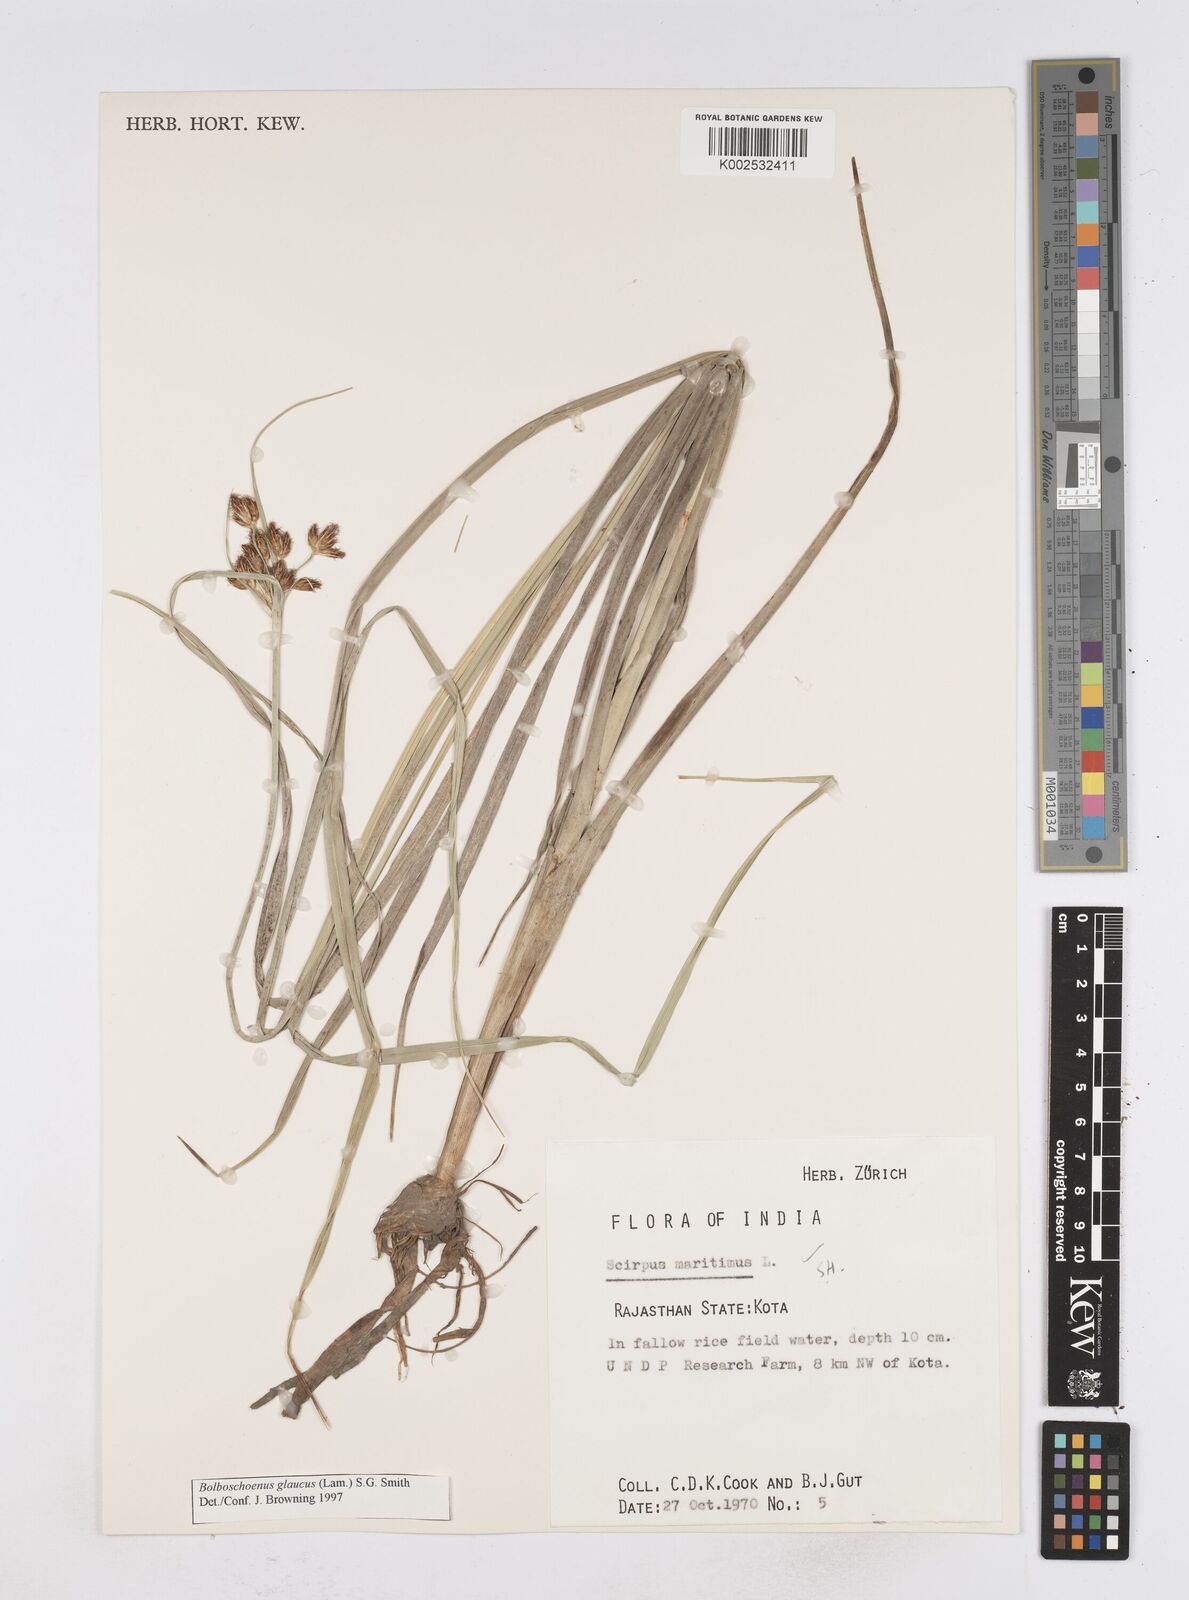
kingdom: Plantae
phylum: Tracheophyta
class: Liliopsida
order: Poales
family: Cyperaceae
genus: Bolboschoenus
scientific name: Bolboschoenus maritimus
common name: Sea club-rush
